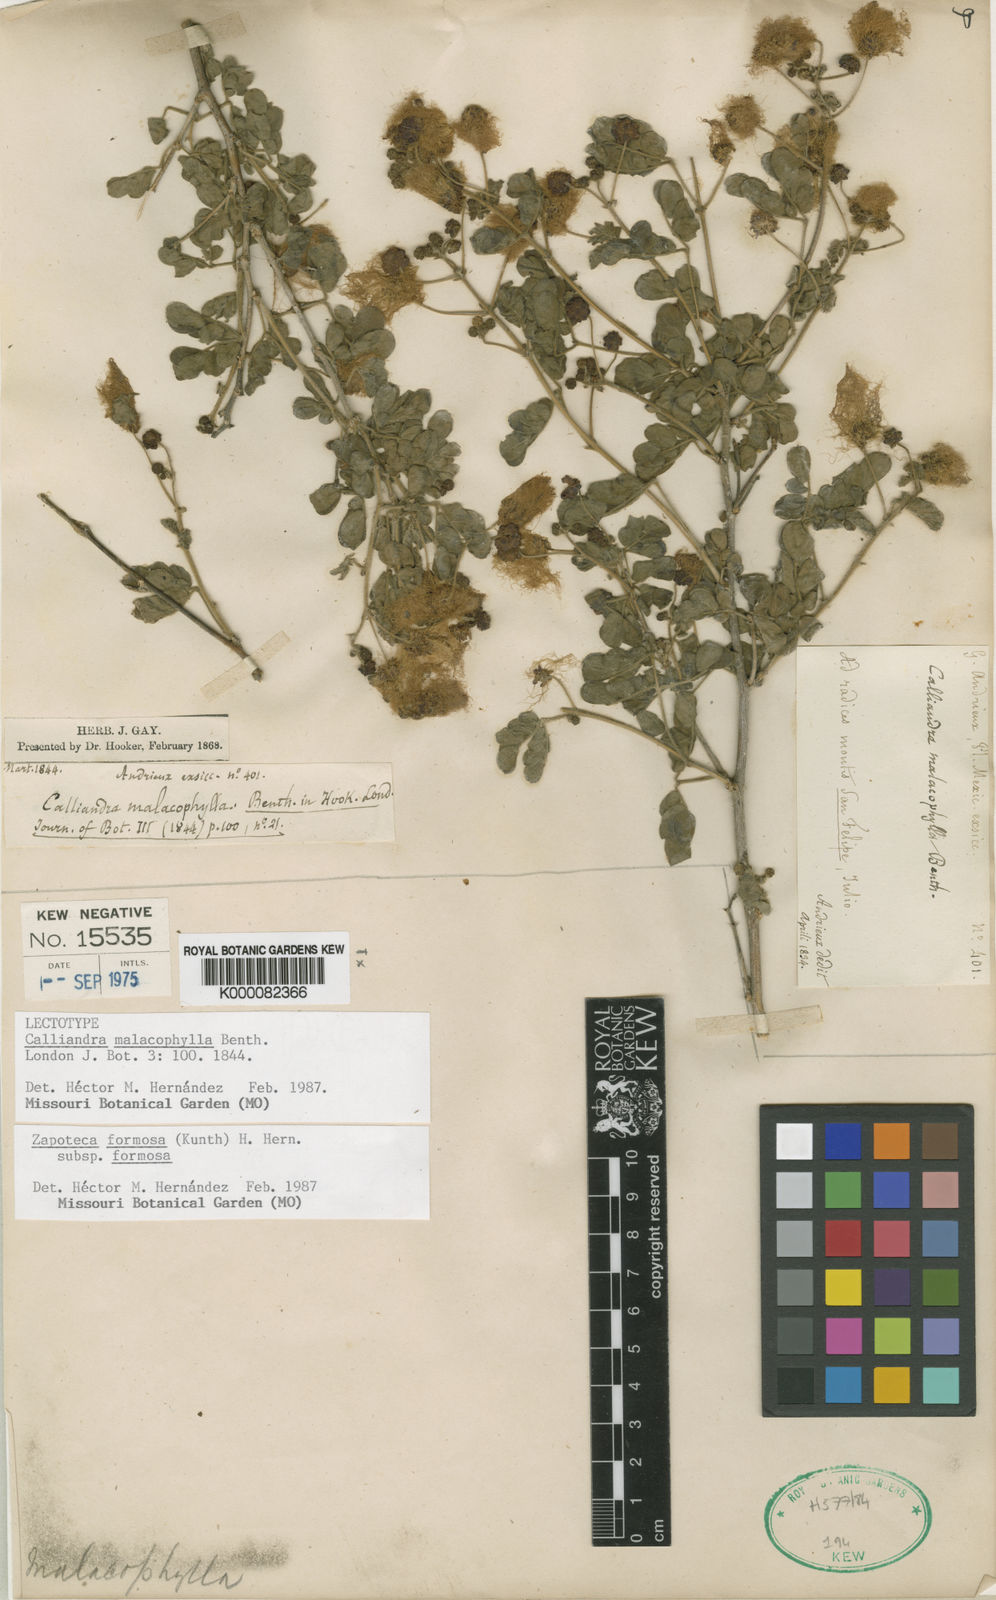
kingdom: Plantae
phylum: Tracheophyta
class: Magnoliopsida
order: Fabales
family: Fabaceae
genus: Zapoteca
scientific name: Zapoteca formosa
